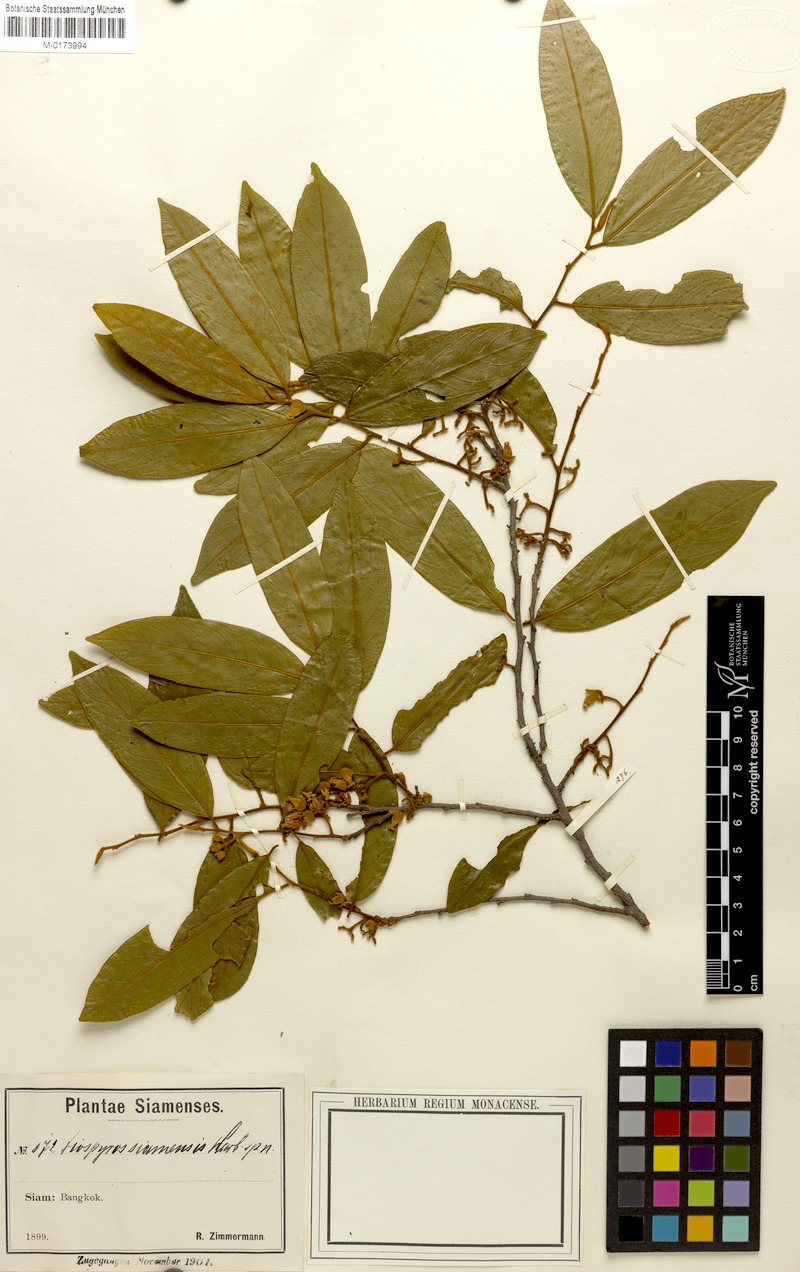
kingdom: Plantae
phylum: Tracheophyta
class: Magnoliopsida
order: Ericales
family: Ebenaceae
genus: Diospyros
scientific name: Diospyros malabarica
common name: Mountain ebony
